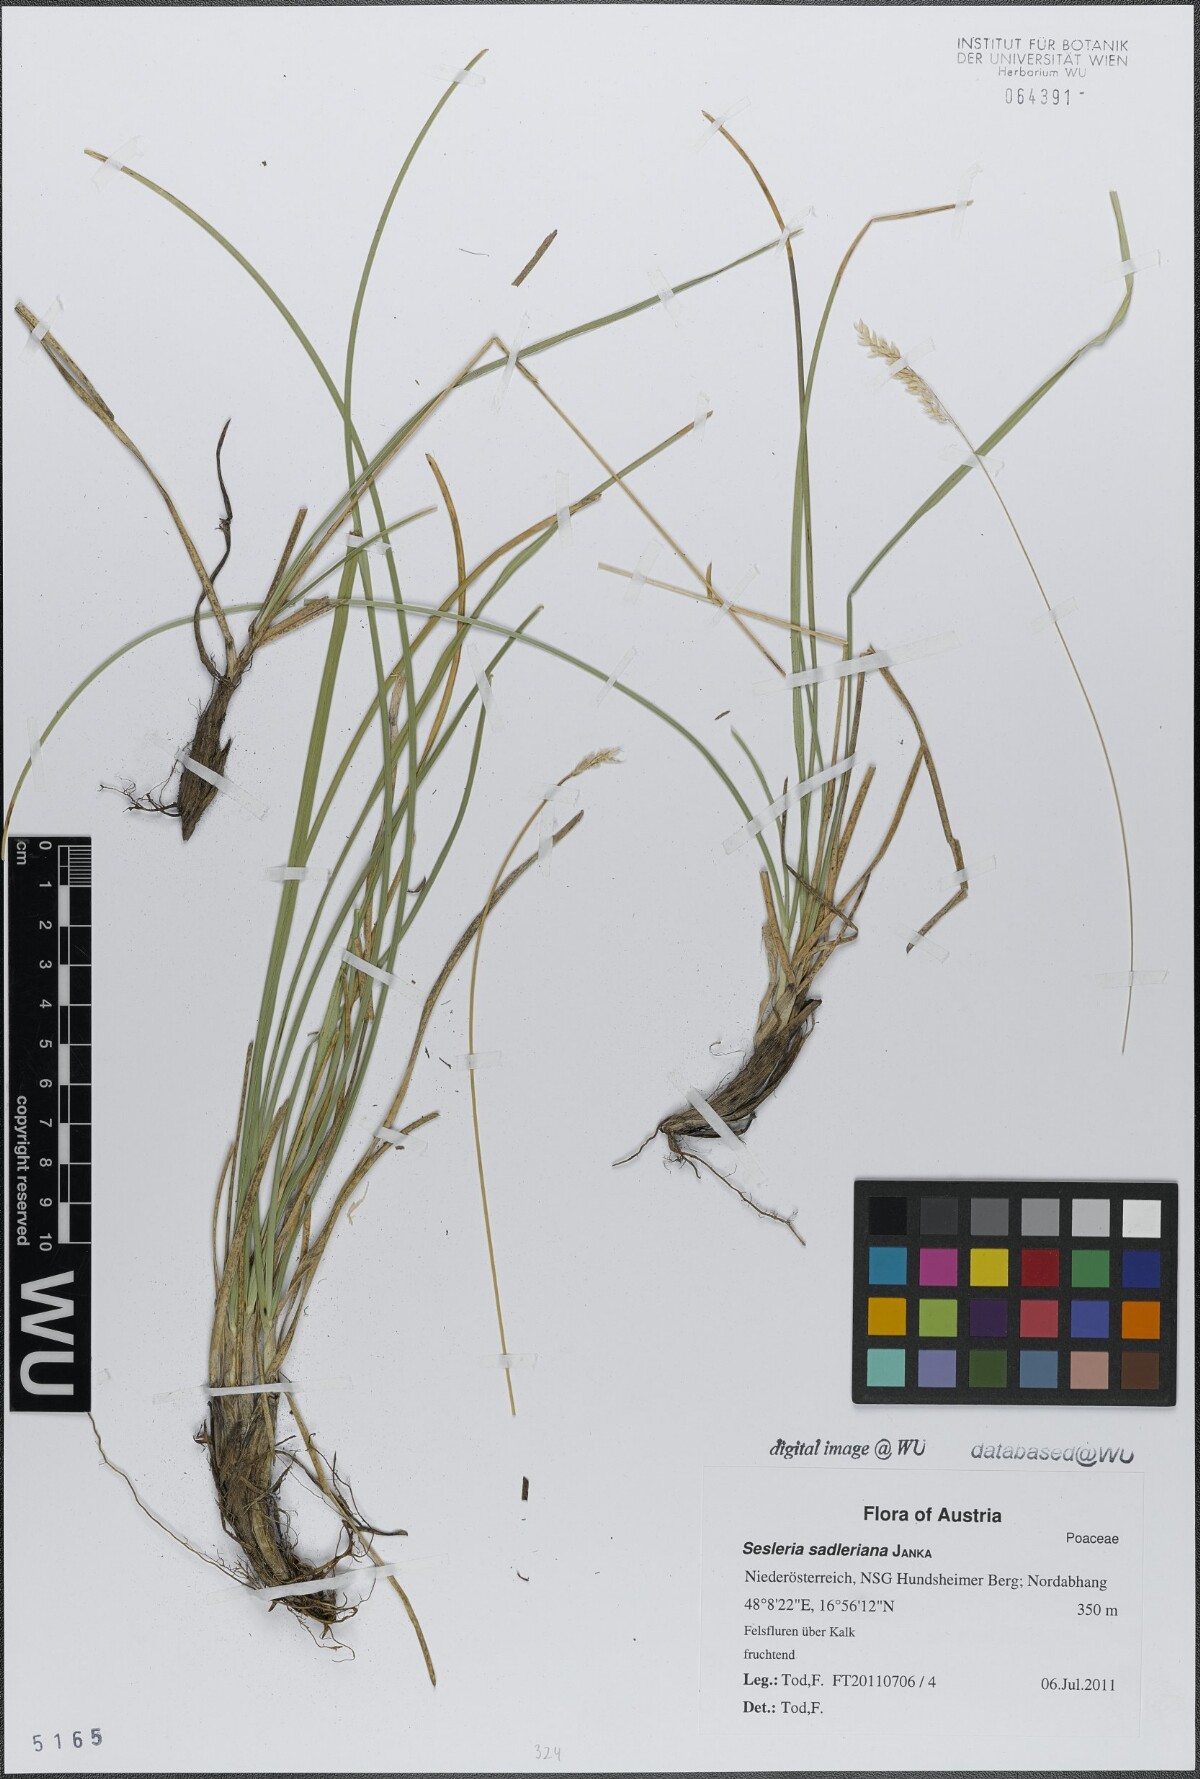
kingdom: Plantae
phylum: Tracheophyta
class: Liliopsida
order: Poales
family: Poaceae
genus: Sesleria
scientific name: Sesleria sadleriana
